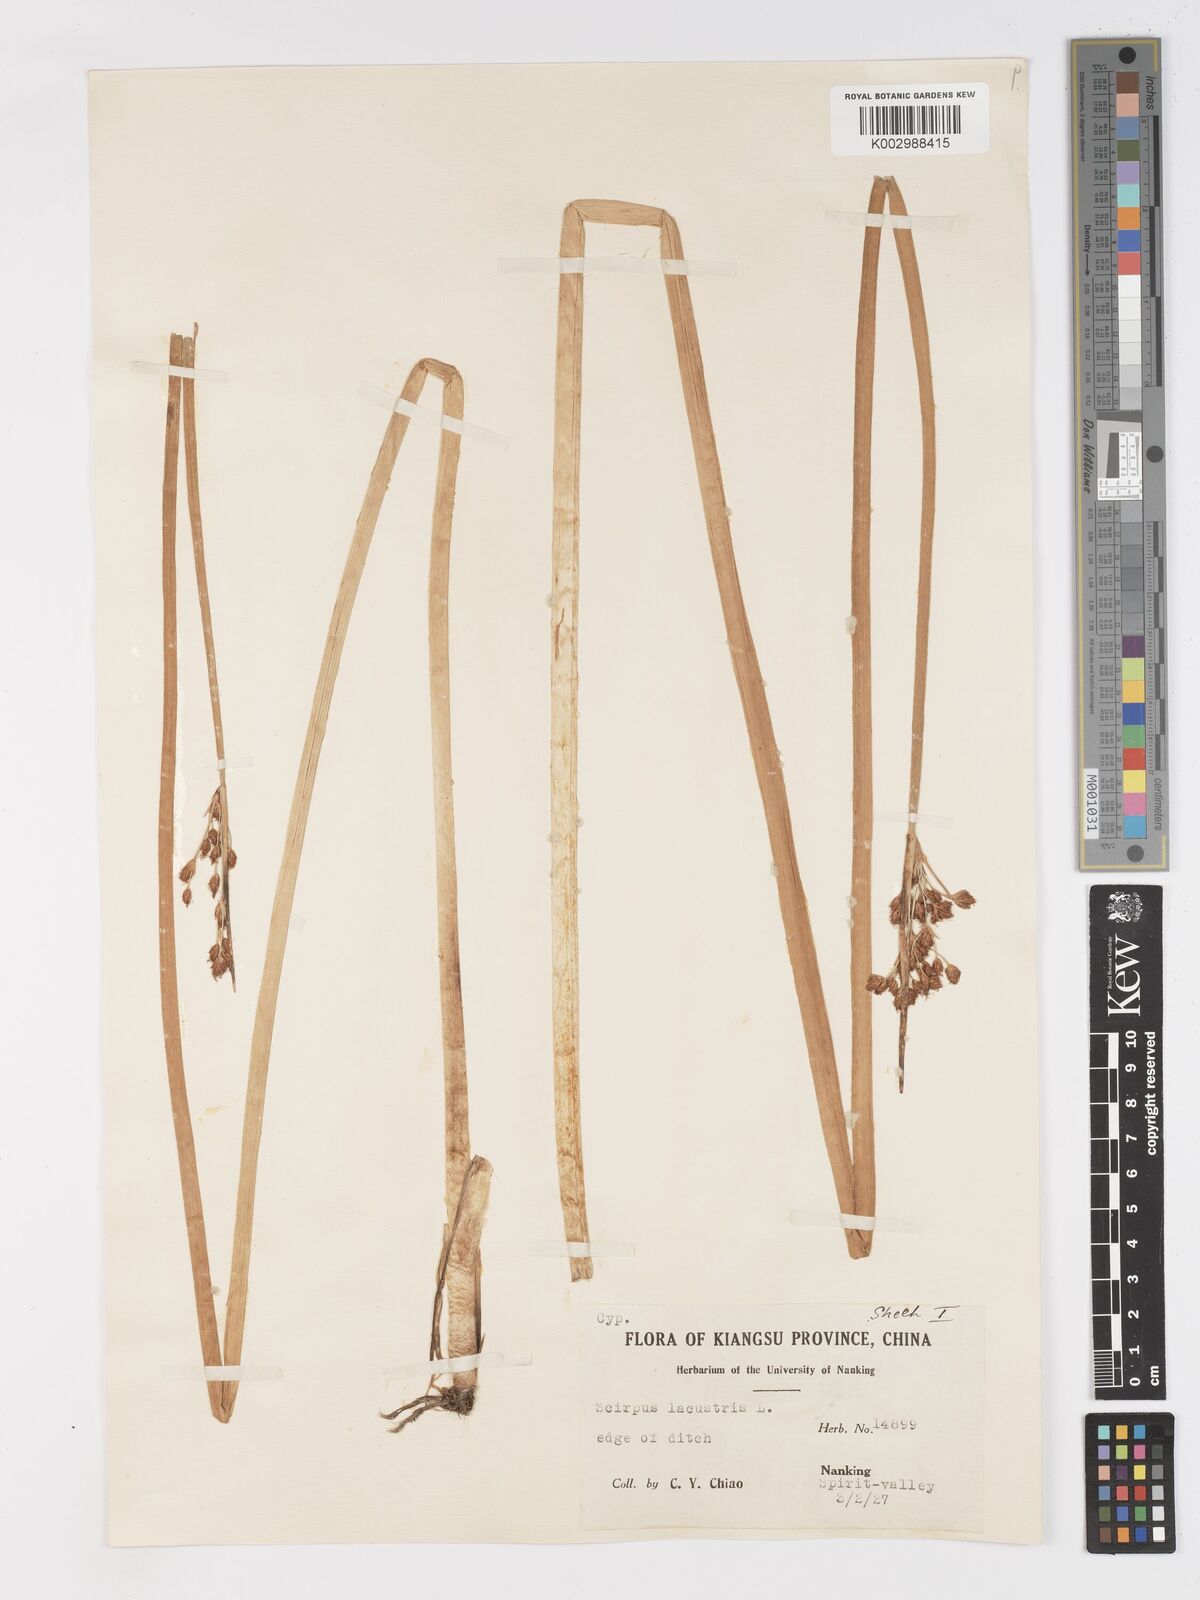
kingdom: Plantae
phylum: Tracheophyta
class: Liliopsida
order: Poales
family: Cyperaceae
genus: Schoenoplectus
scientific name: Schoenoplectus lacustris
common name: Common club-rush
